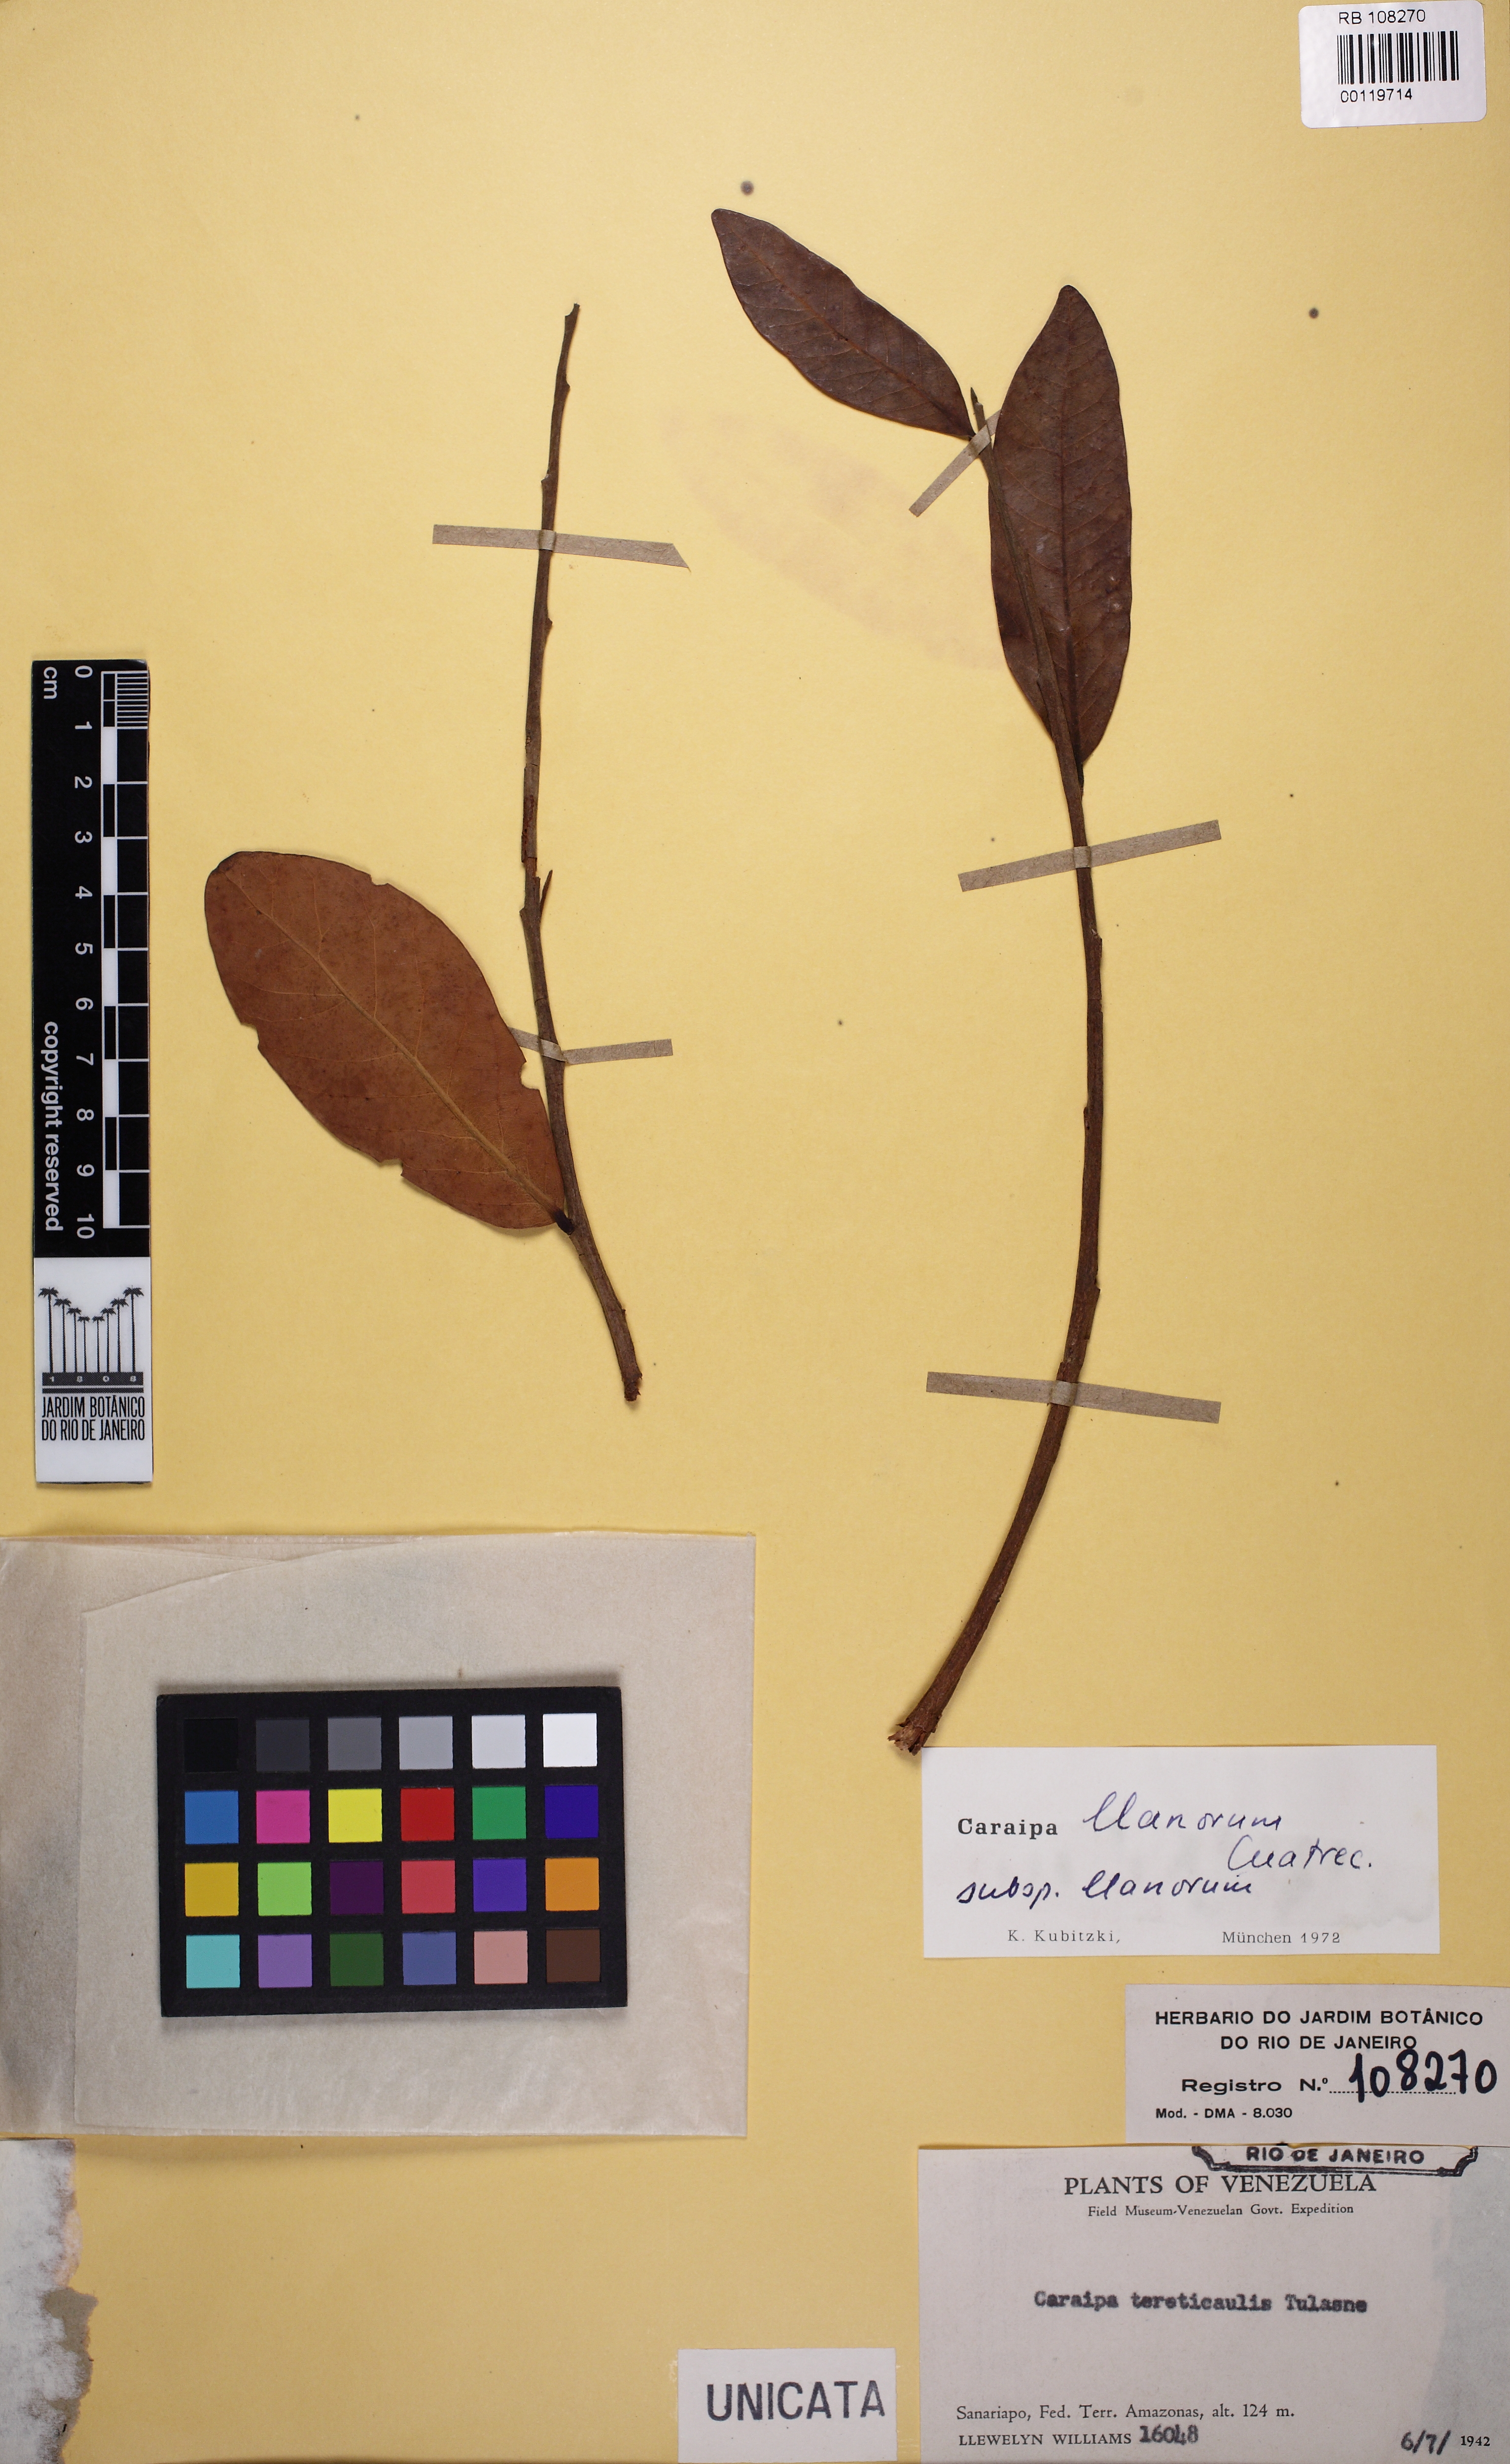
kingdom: Plantae
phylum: Tracheophyta
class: Magnoliopsida
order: Malpighiales
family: Hypericaceae
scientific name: Hypericaceae
